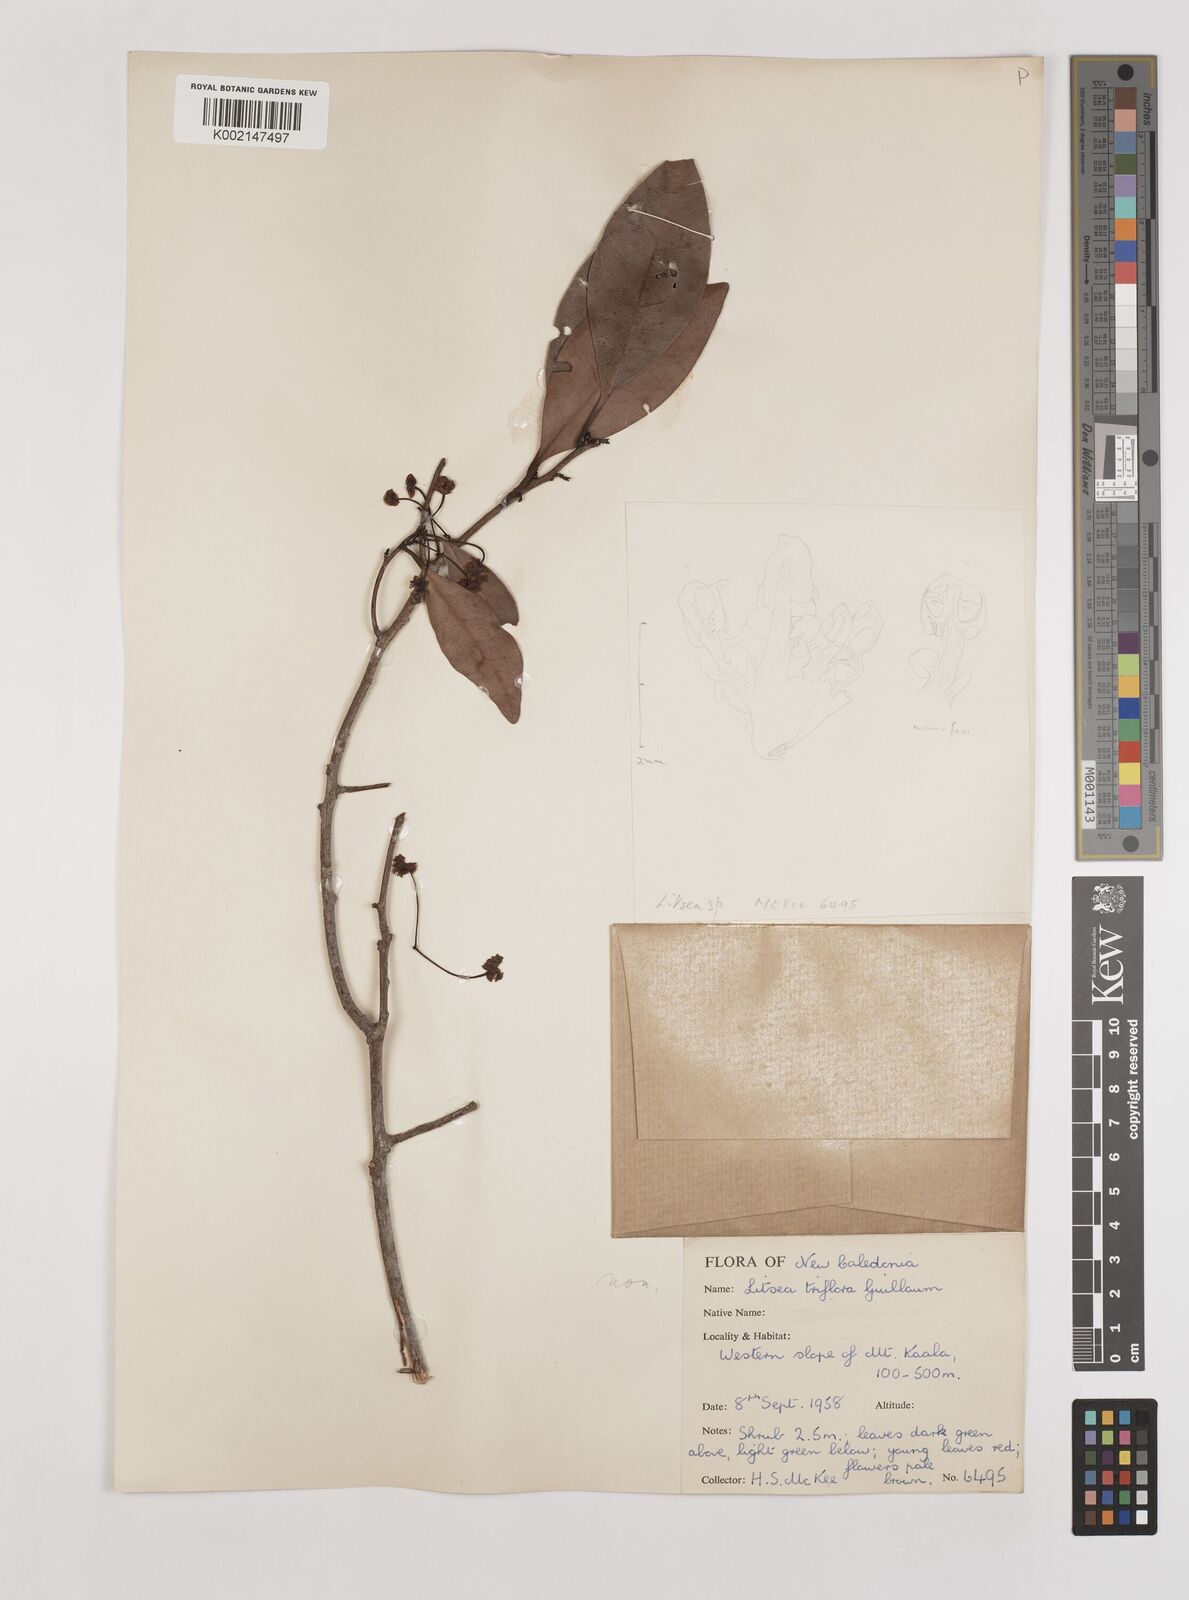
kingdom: Plantae
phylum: Tracheophyta
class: Magnoliopsida
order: Laurales
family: Lauraceae
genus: Litsea
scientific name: Litsea triflora
